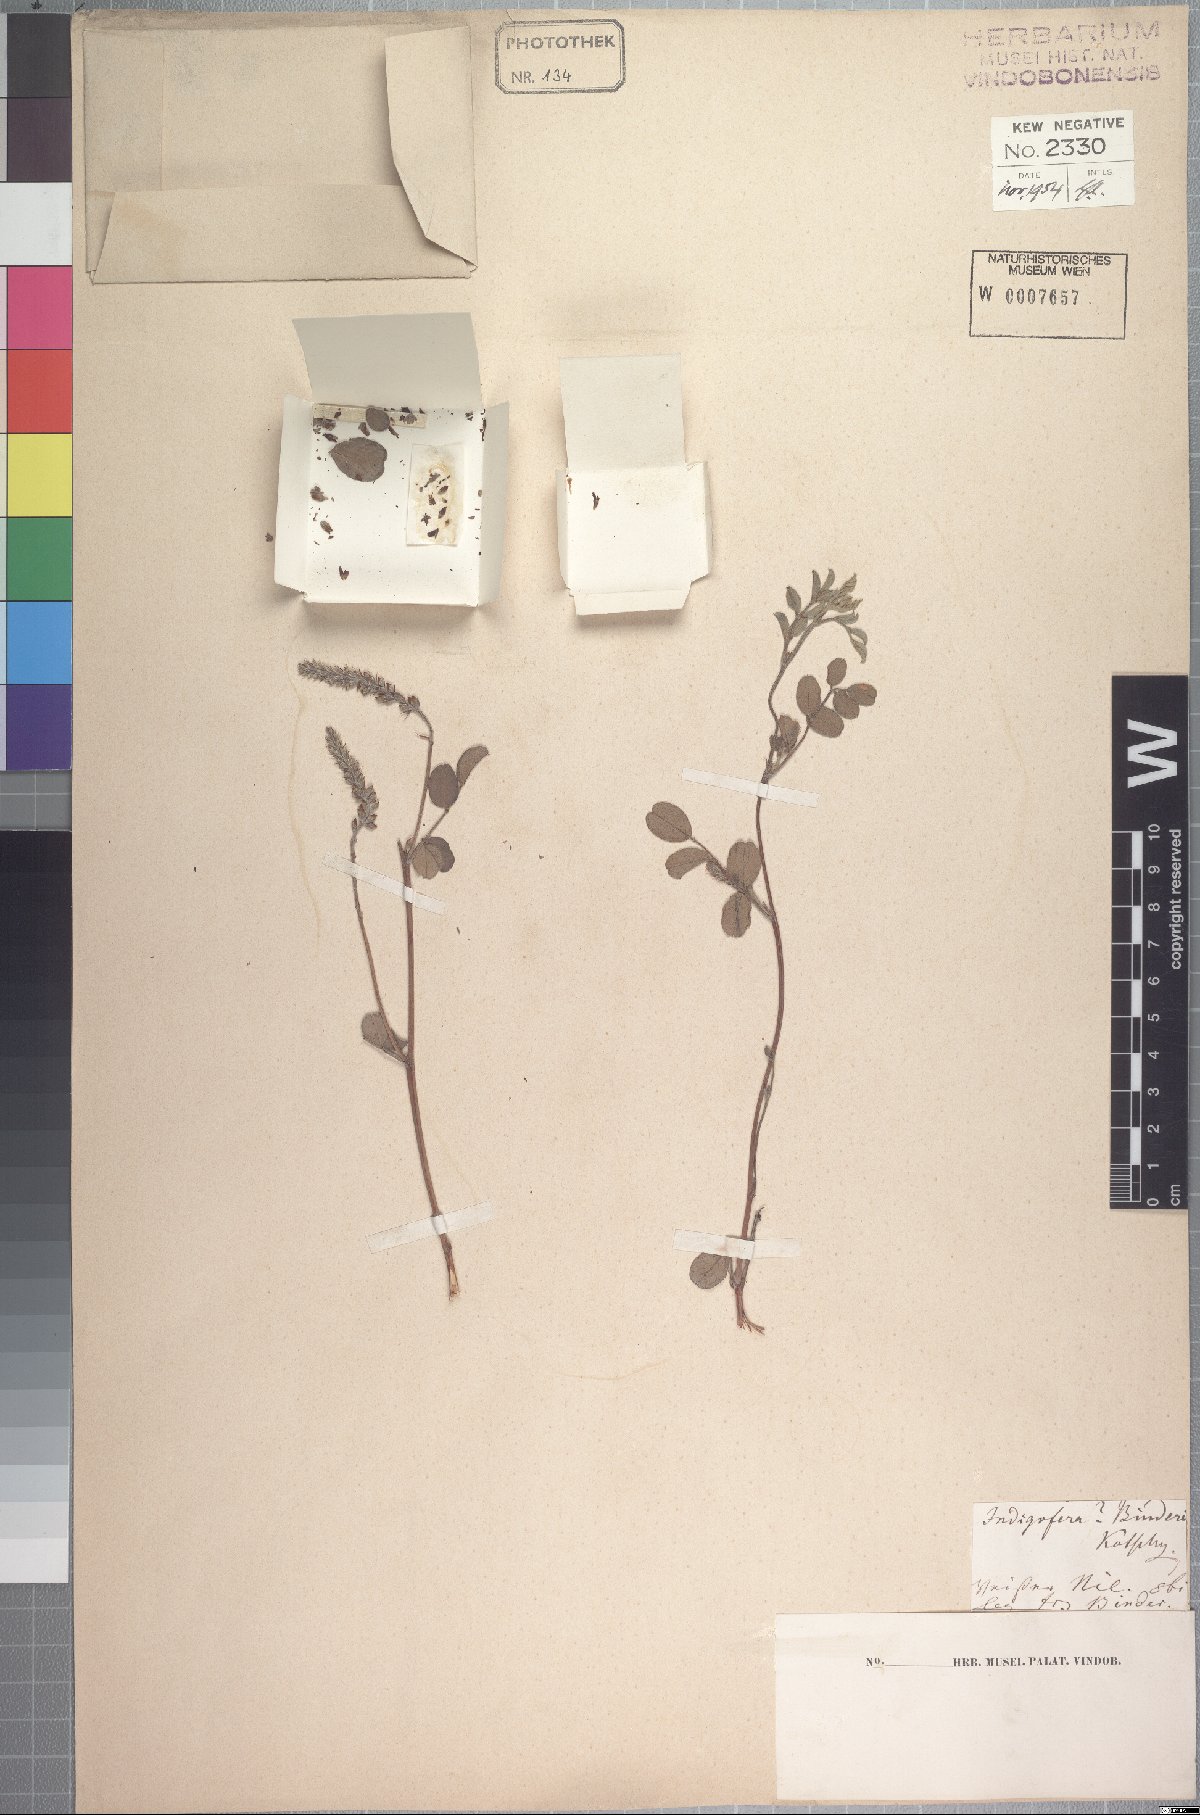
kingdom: Plantae
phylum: Tracheophyta
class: Magnoliopsida
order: Fabales
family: Fabaceae
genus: Indigofera
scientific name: Indigofera binderi
